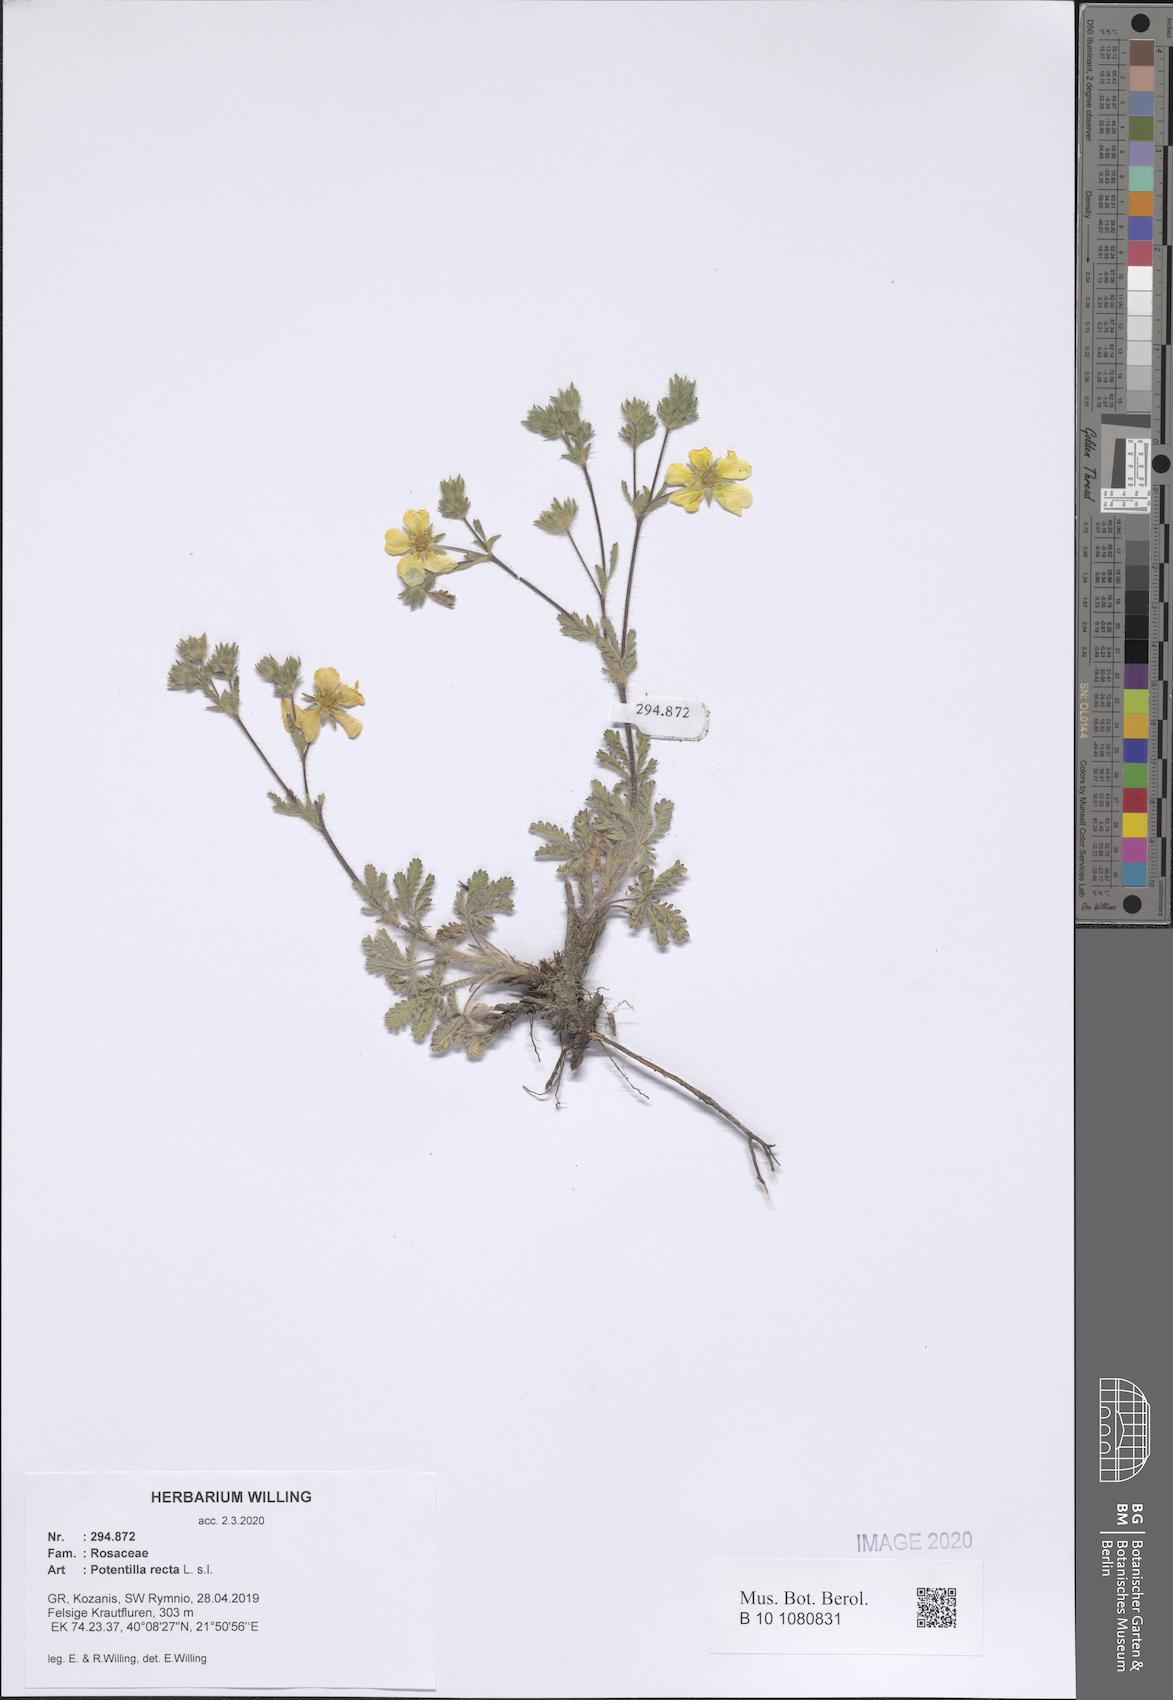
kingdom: Plantae
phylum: Tracheophyta
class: Magnoliopsida
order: Rosales
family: Rosaceae
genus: Potentilla
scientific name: Potentilla recta
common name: Sulphur cinquefoil
